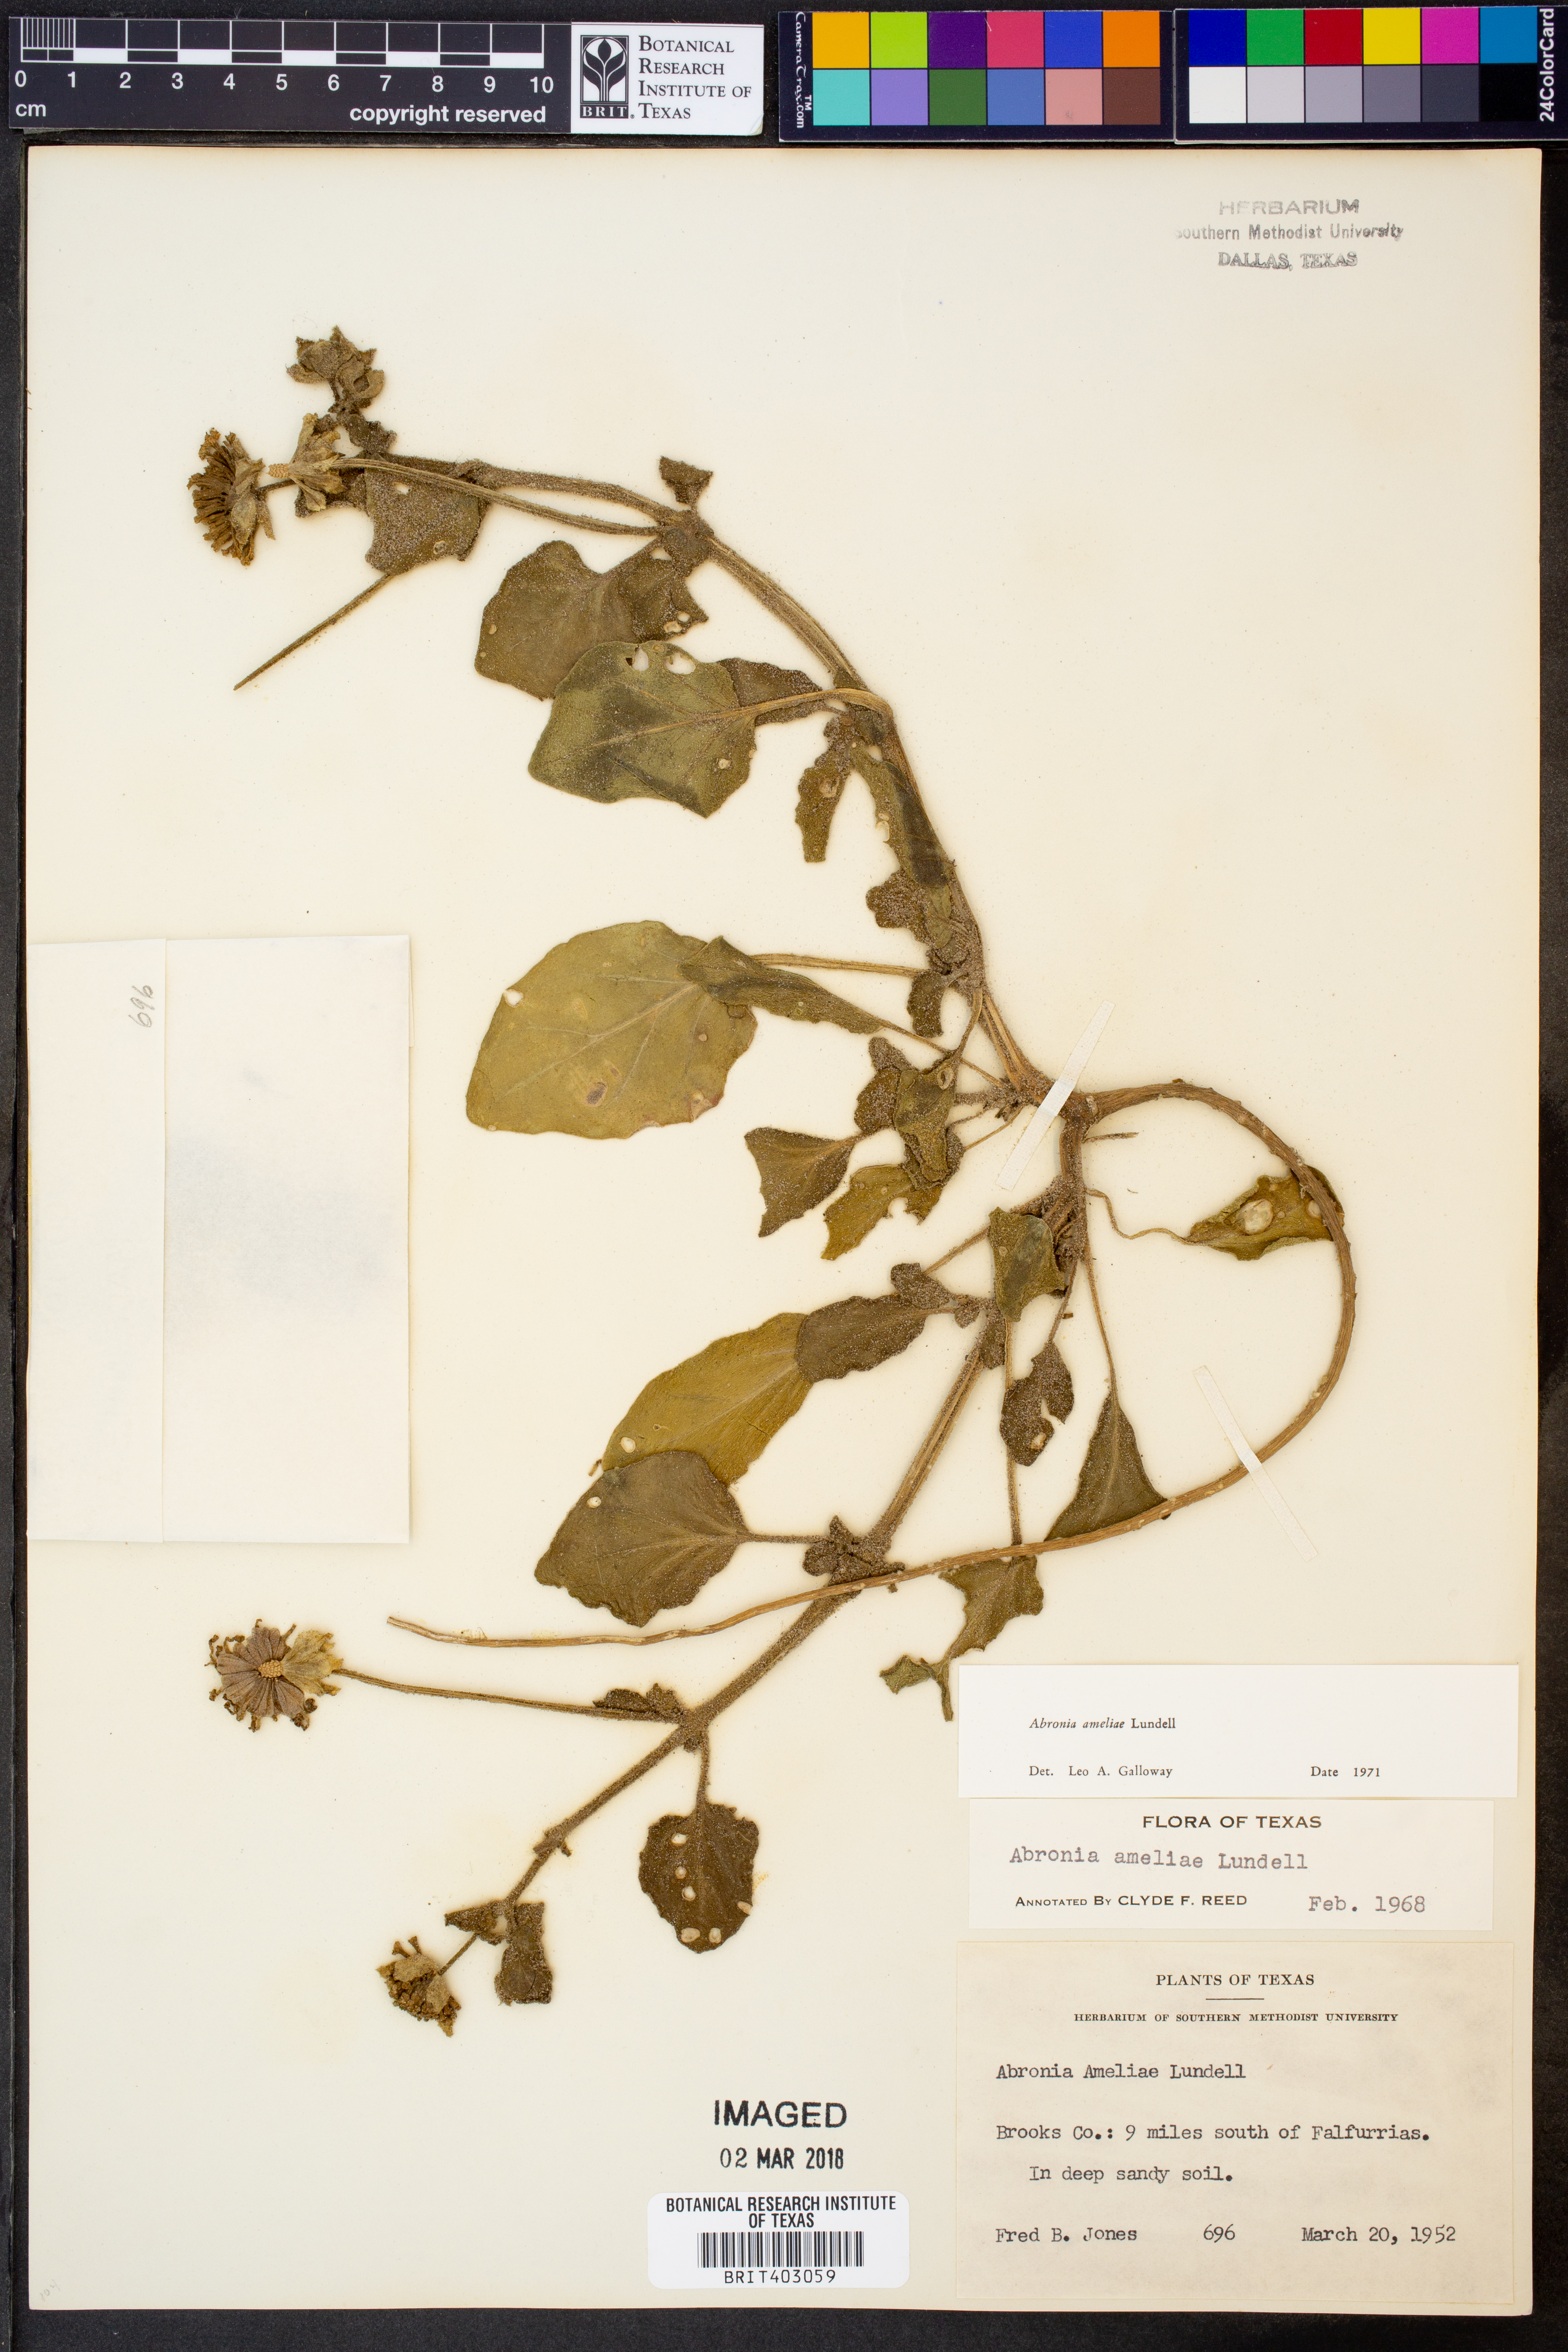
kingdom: Plantae
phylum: Tracheophyta
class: Magnoliopsida
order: Caryophyllales
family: Nyctaginaceae
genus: Abronia
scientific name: Abronia ameliae
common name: Amelia's sand-verbena
